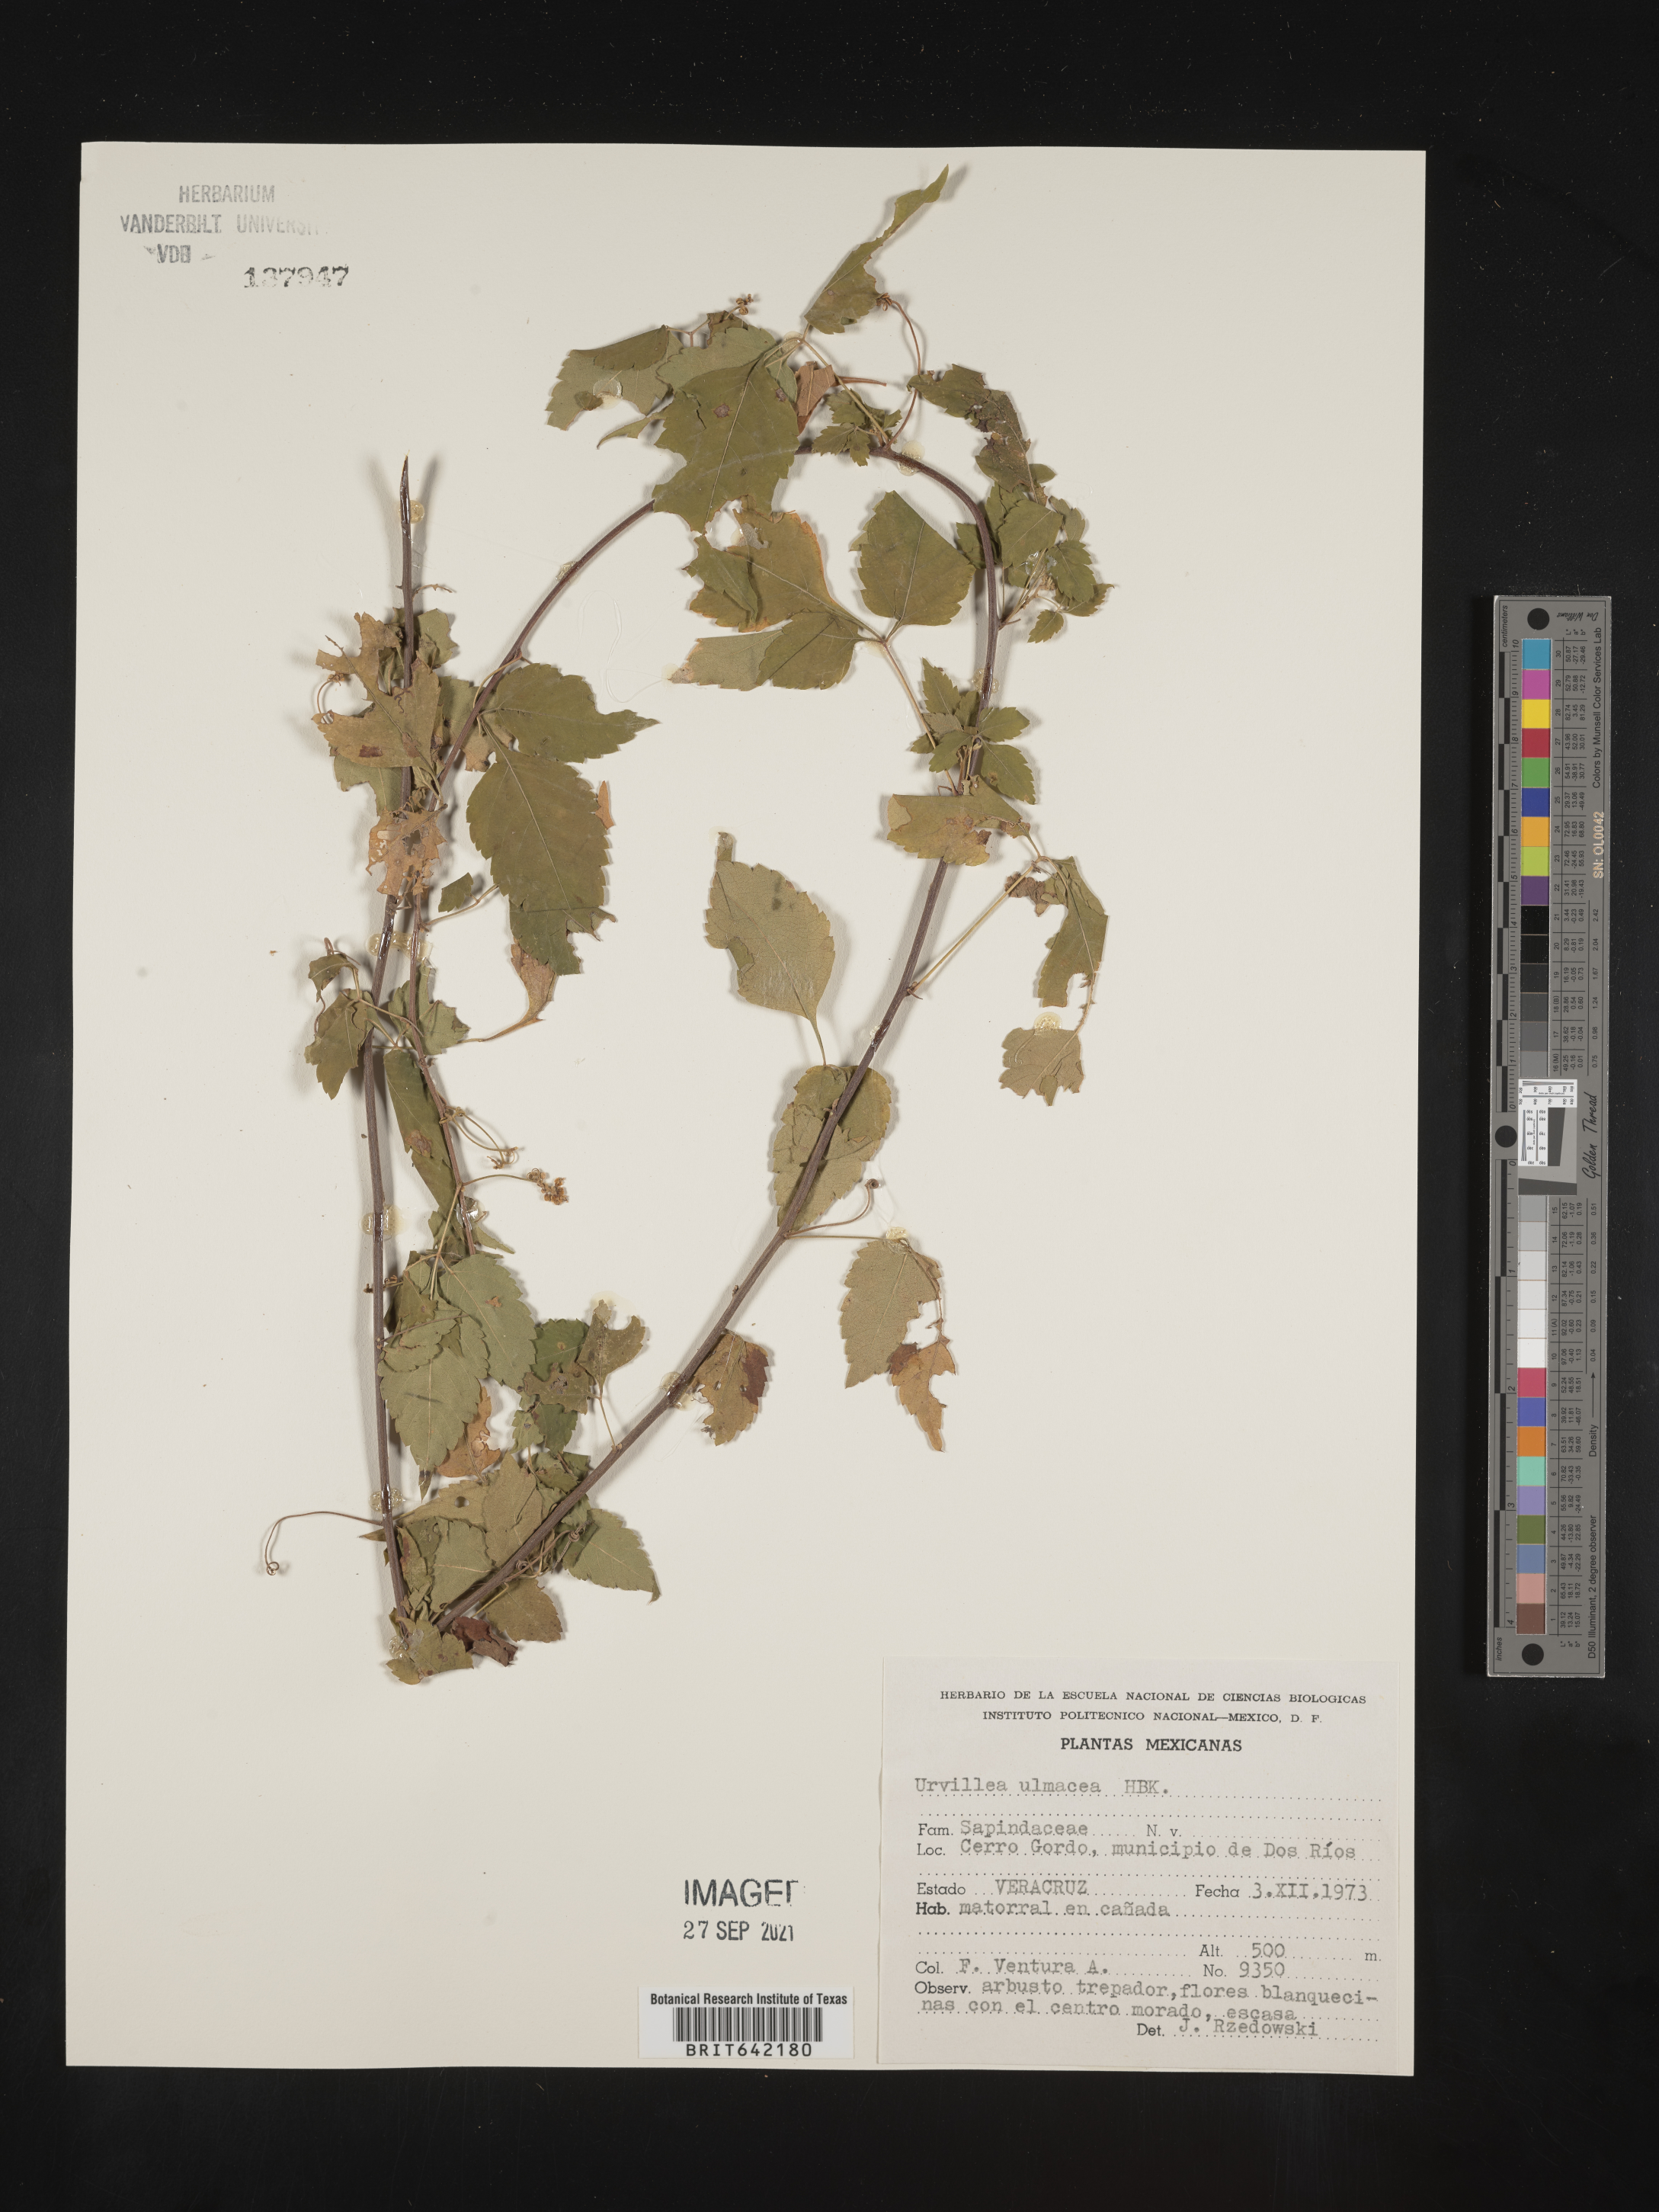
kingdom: Plantae
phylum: Tracheophyta
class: Magnoliopsida
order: Sapindales
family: Sapindaceae
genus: Urvillea
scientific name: Urvillea
